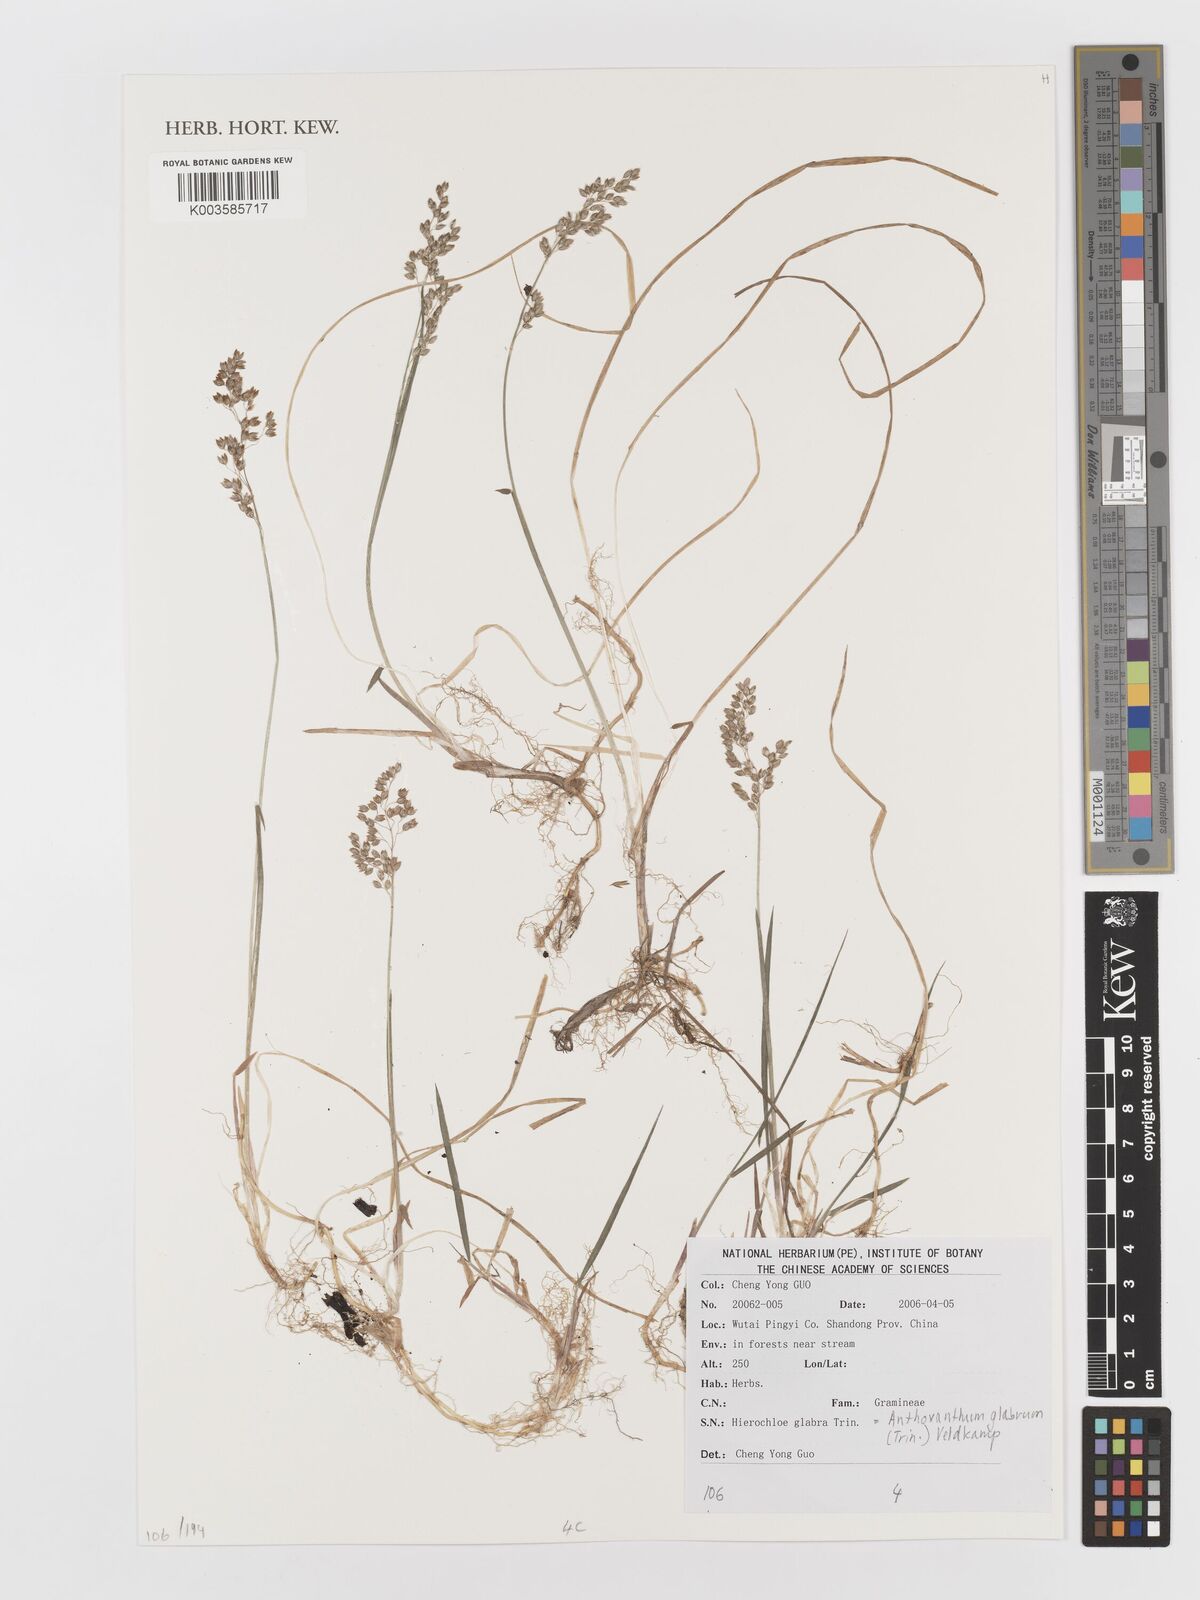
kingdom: Plantae
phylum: Tracheophyta
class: Liliopsida
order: Poales
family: Poaceae
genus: Anthoxanthum
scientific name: Anthoxanthum glabrum
